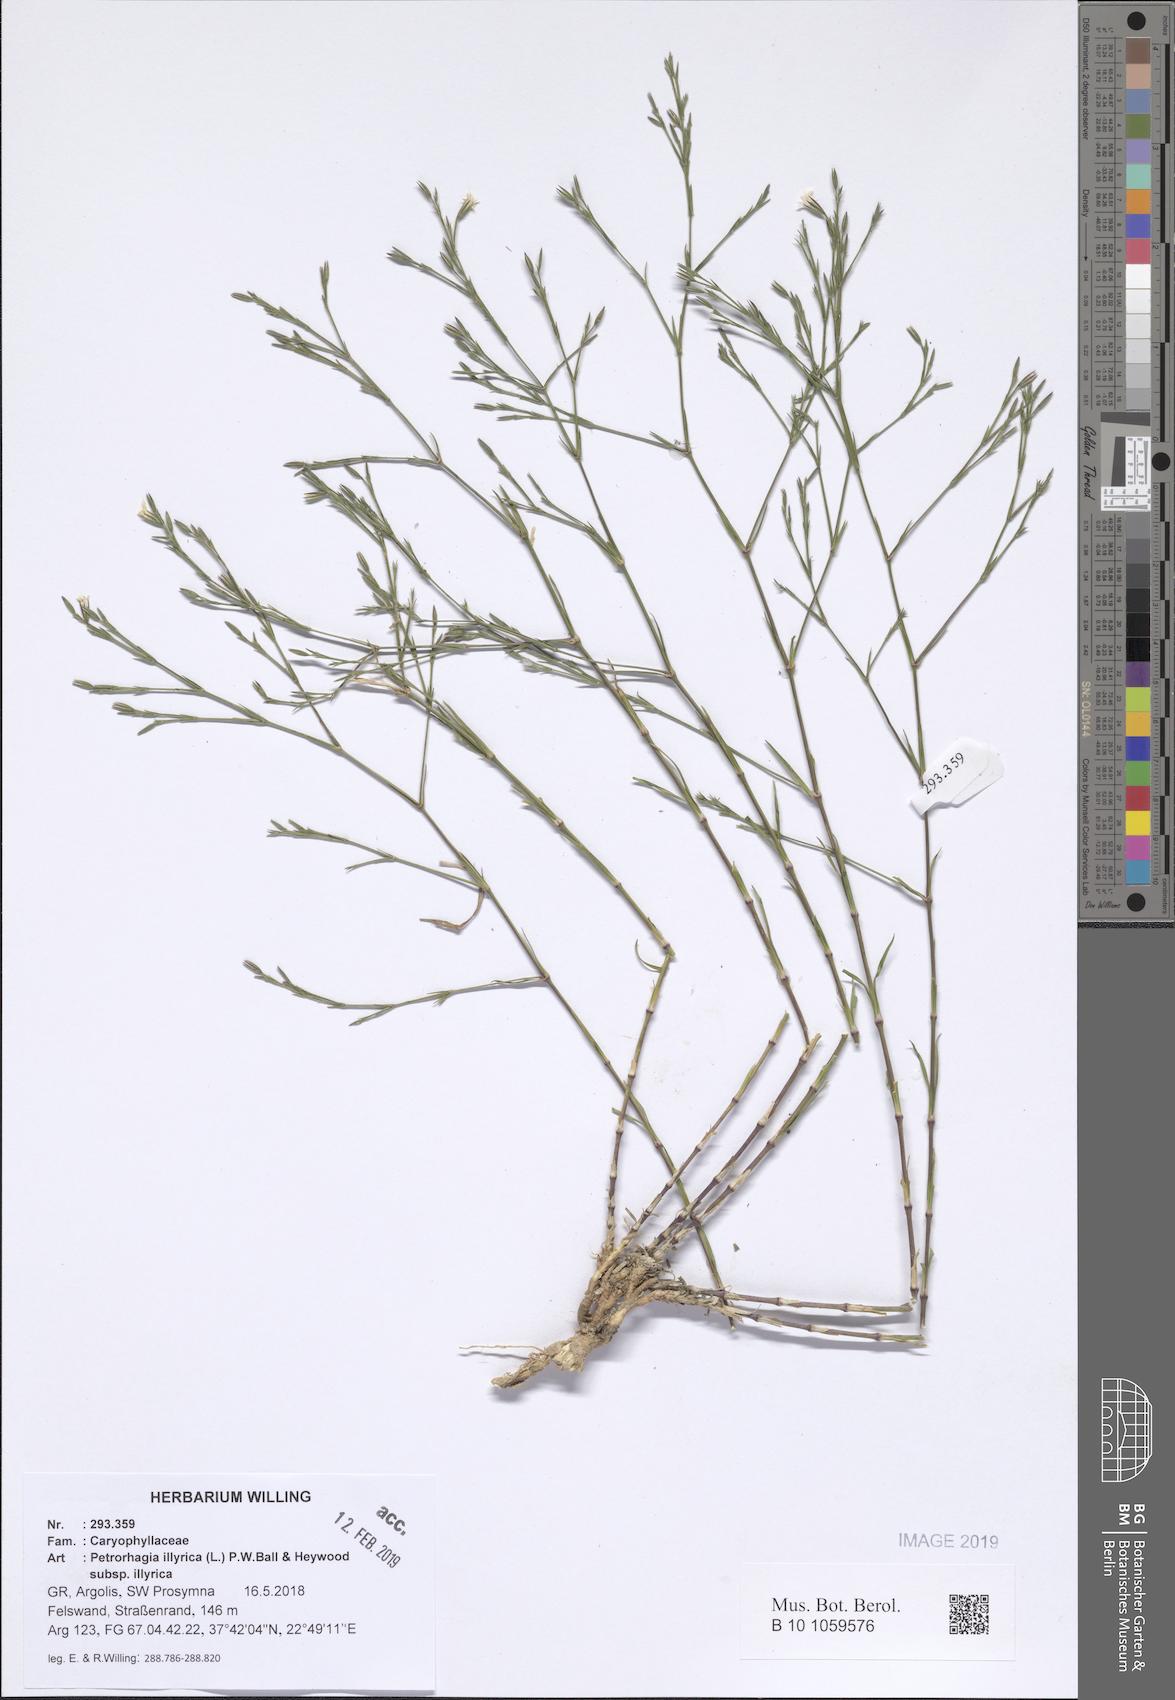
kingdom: Plantae
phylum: Tracheophyta
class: Magnoliopsida
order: Caryophyllales
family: Caryophyllaceae
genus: Dianthus
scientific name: Dianthus illyricus
